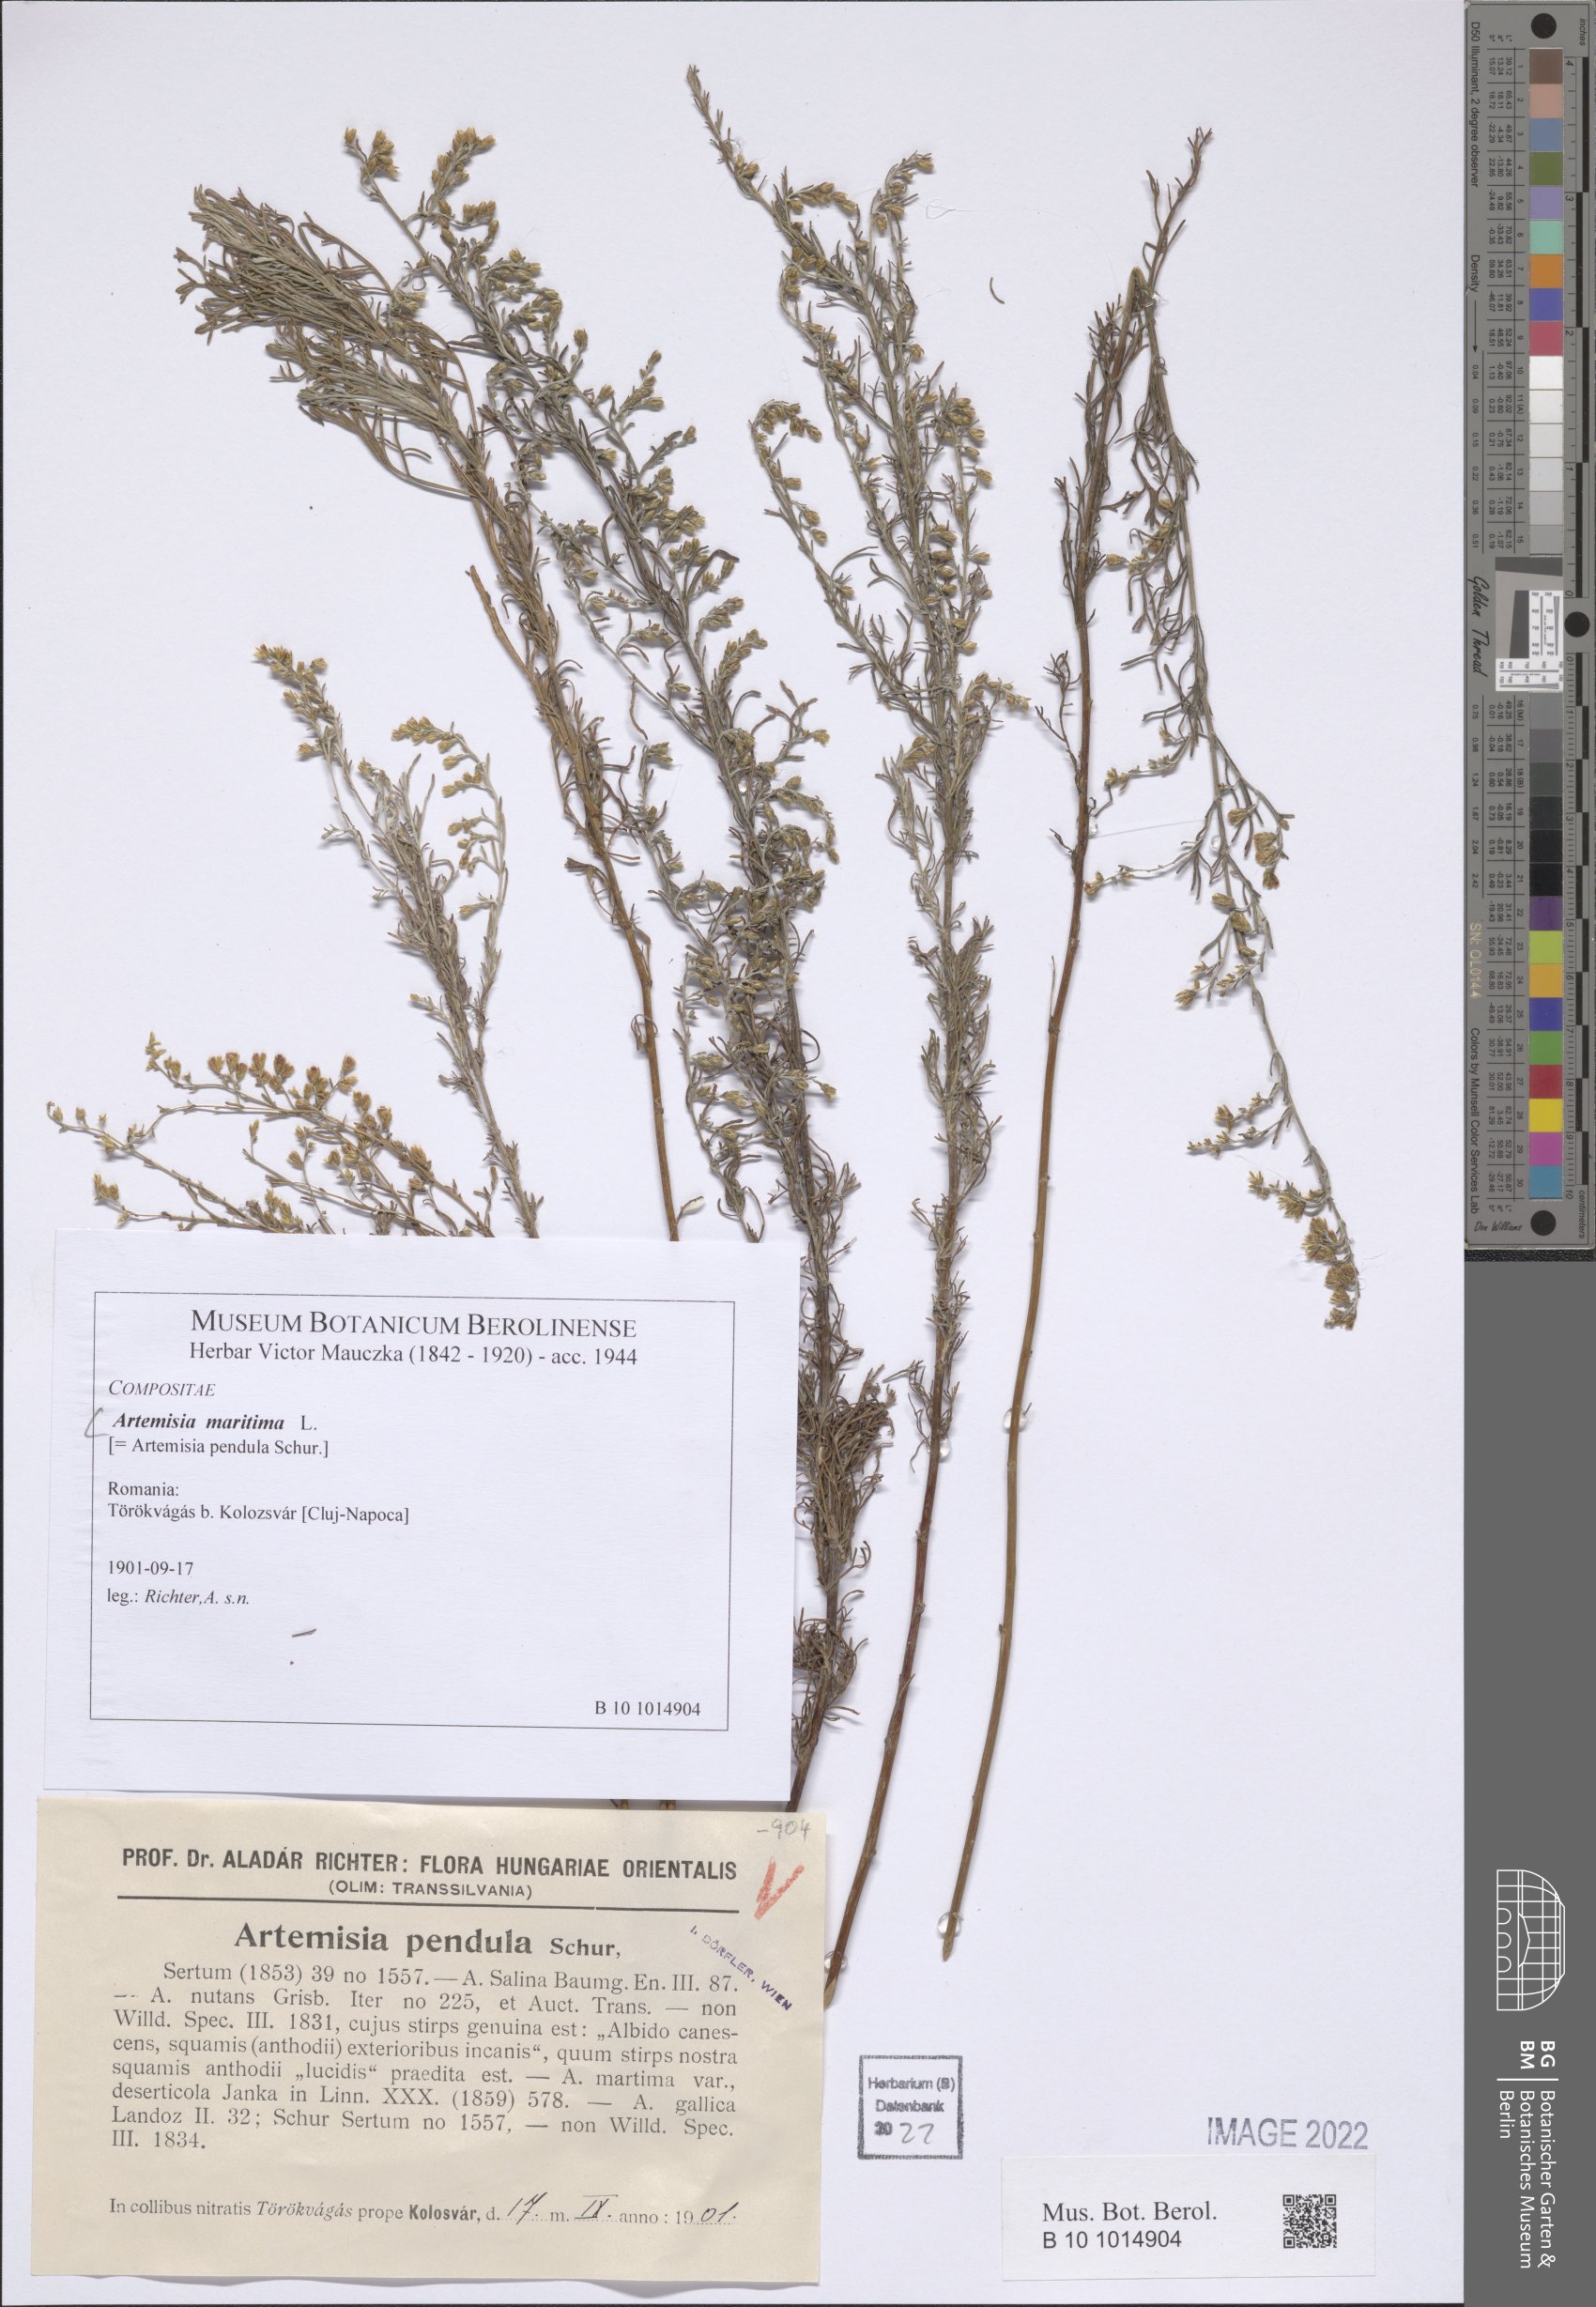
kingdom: Plantae
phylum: Tracheophyta
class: Magnoliopsida
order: Asterales
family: Asteraceae
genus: Artemisia
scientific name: Artemisia maritima
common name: Wormseed
